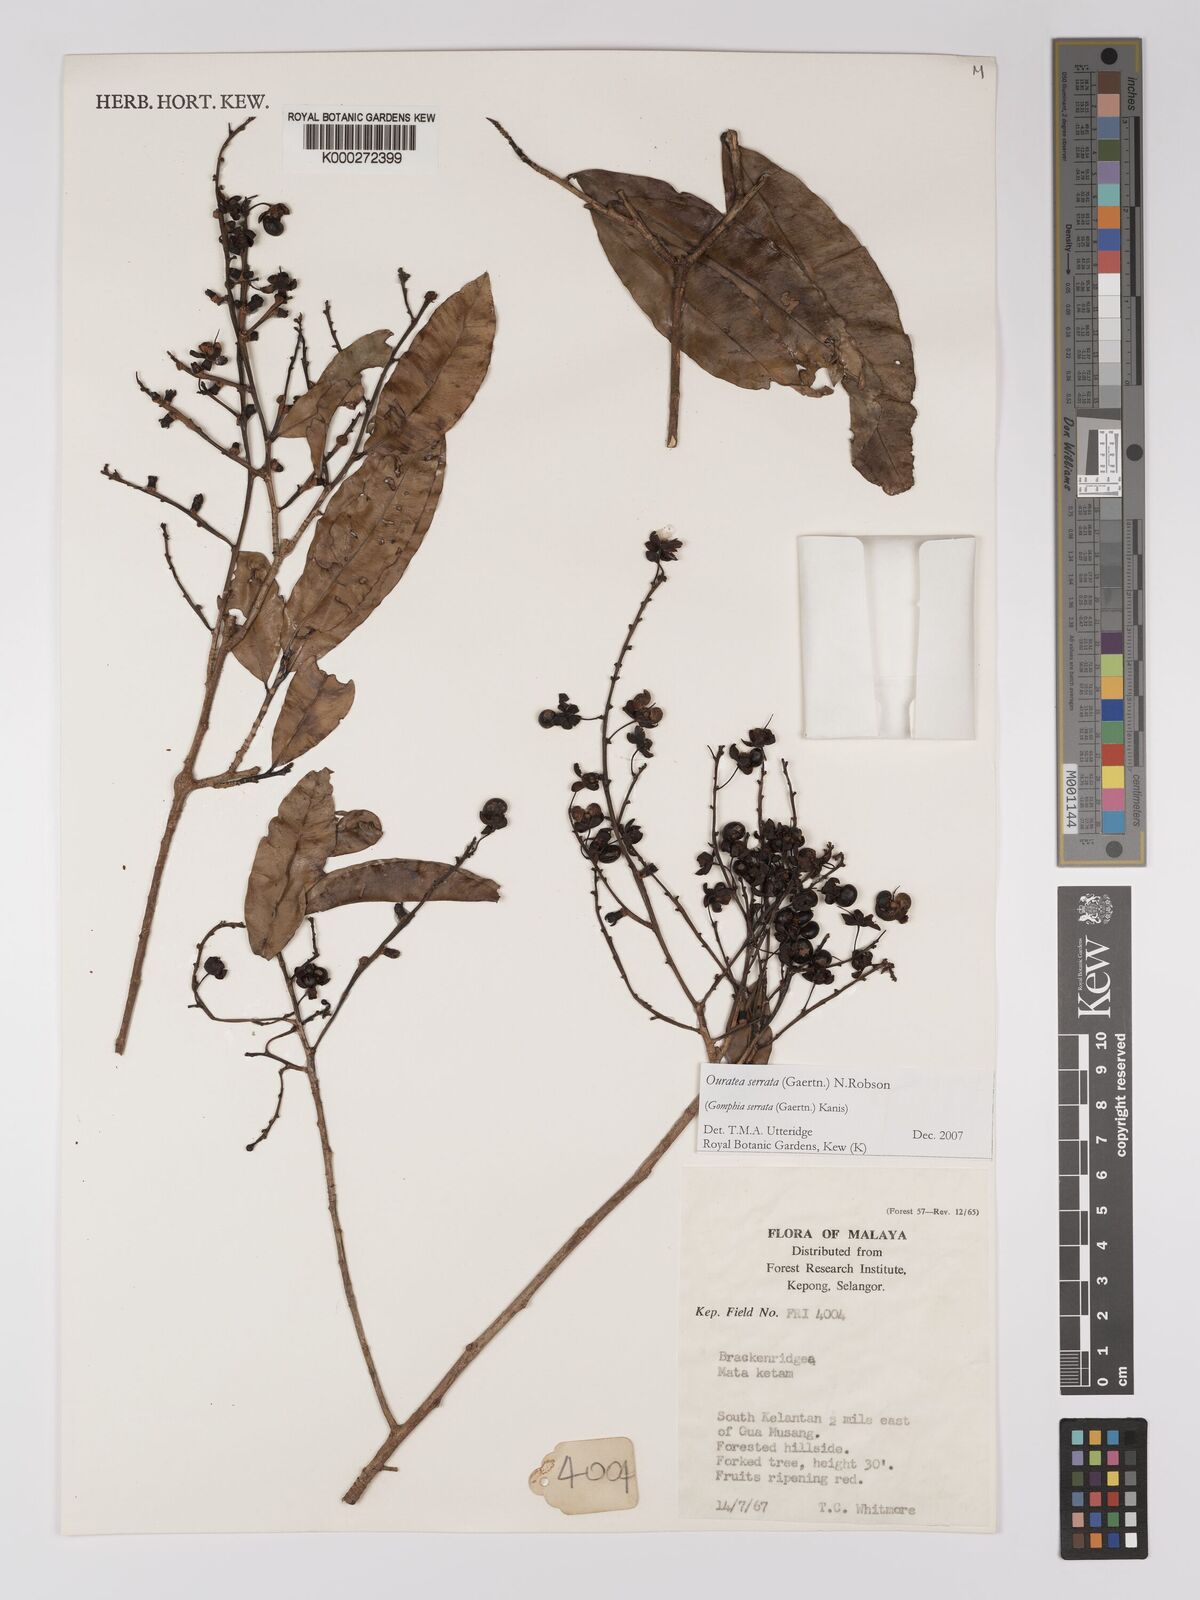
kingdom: Plantae
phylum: Tracheophyta
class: Magnoliopsida
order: Malpighiales
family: Ochnaceae
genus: Gomphia
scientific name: Gomphia serrata
